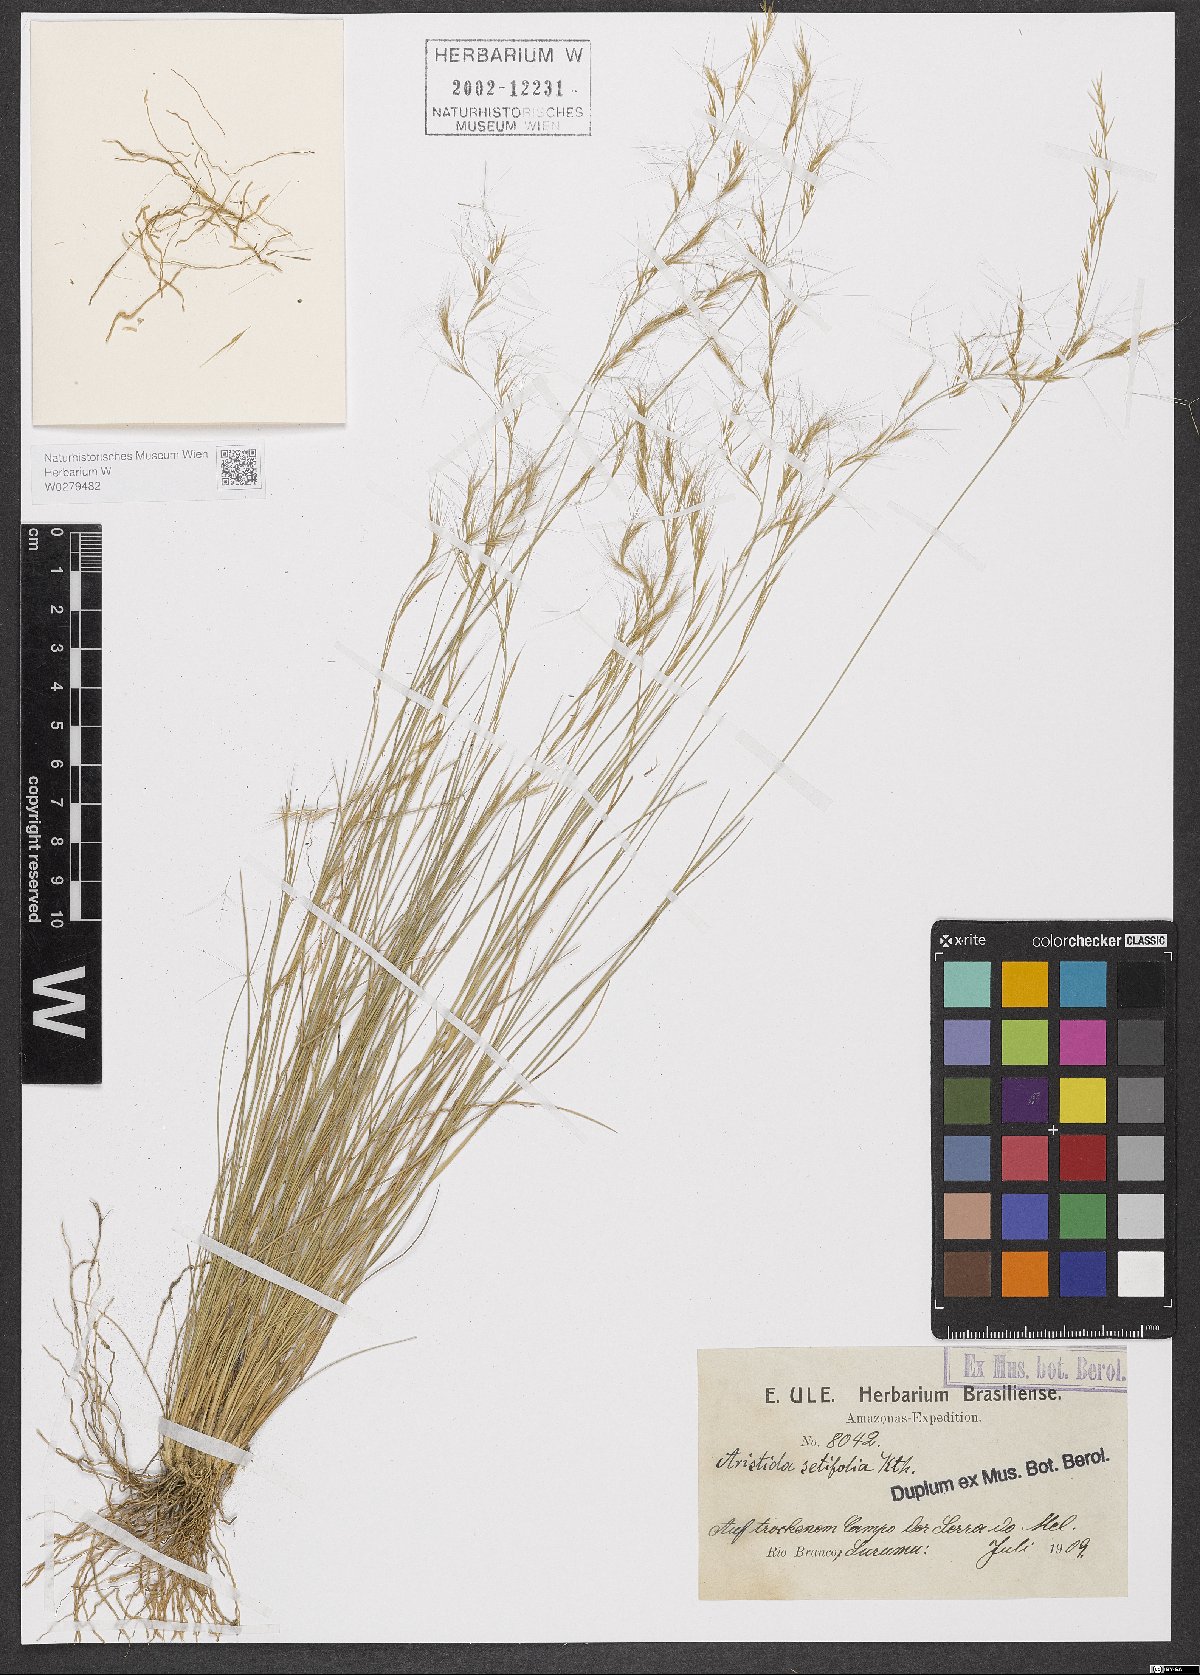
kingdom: Plantae
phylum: Tracheophyta
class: Liliopsida
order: Poales
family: Poaceae
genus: Aristida
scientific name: Aristida setifolia
